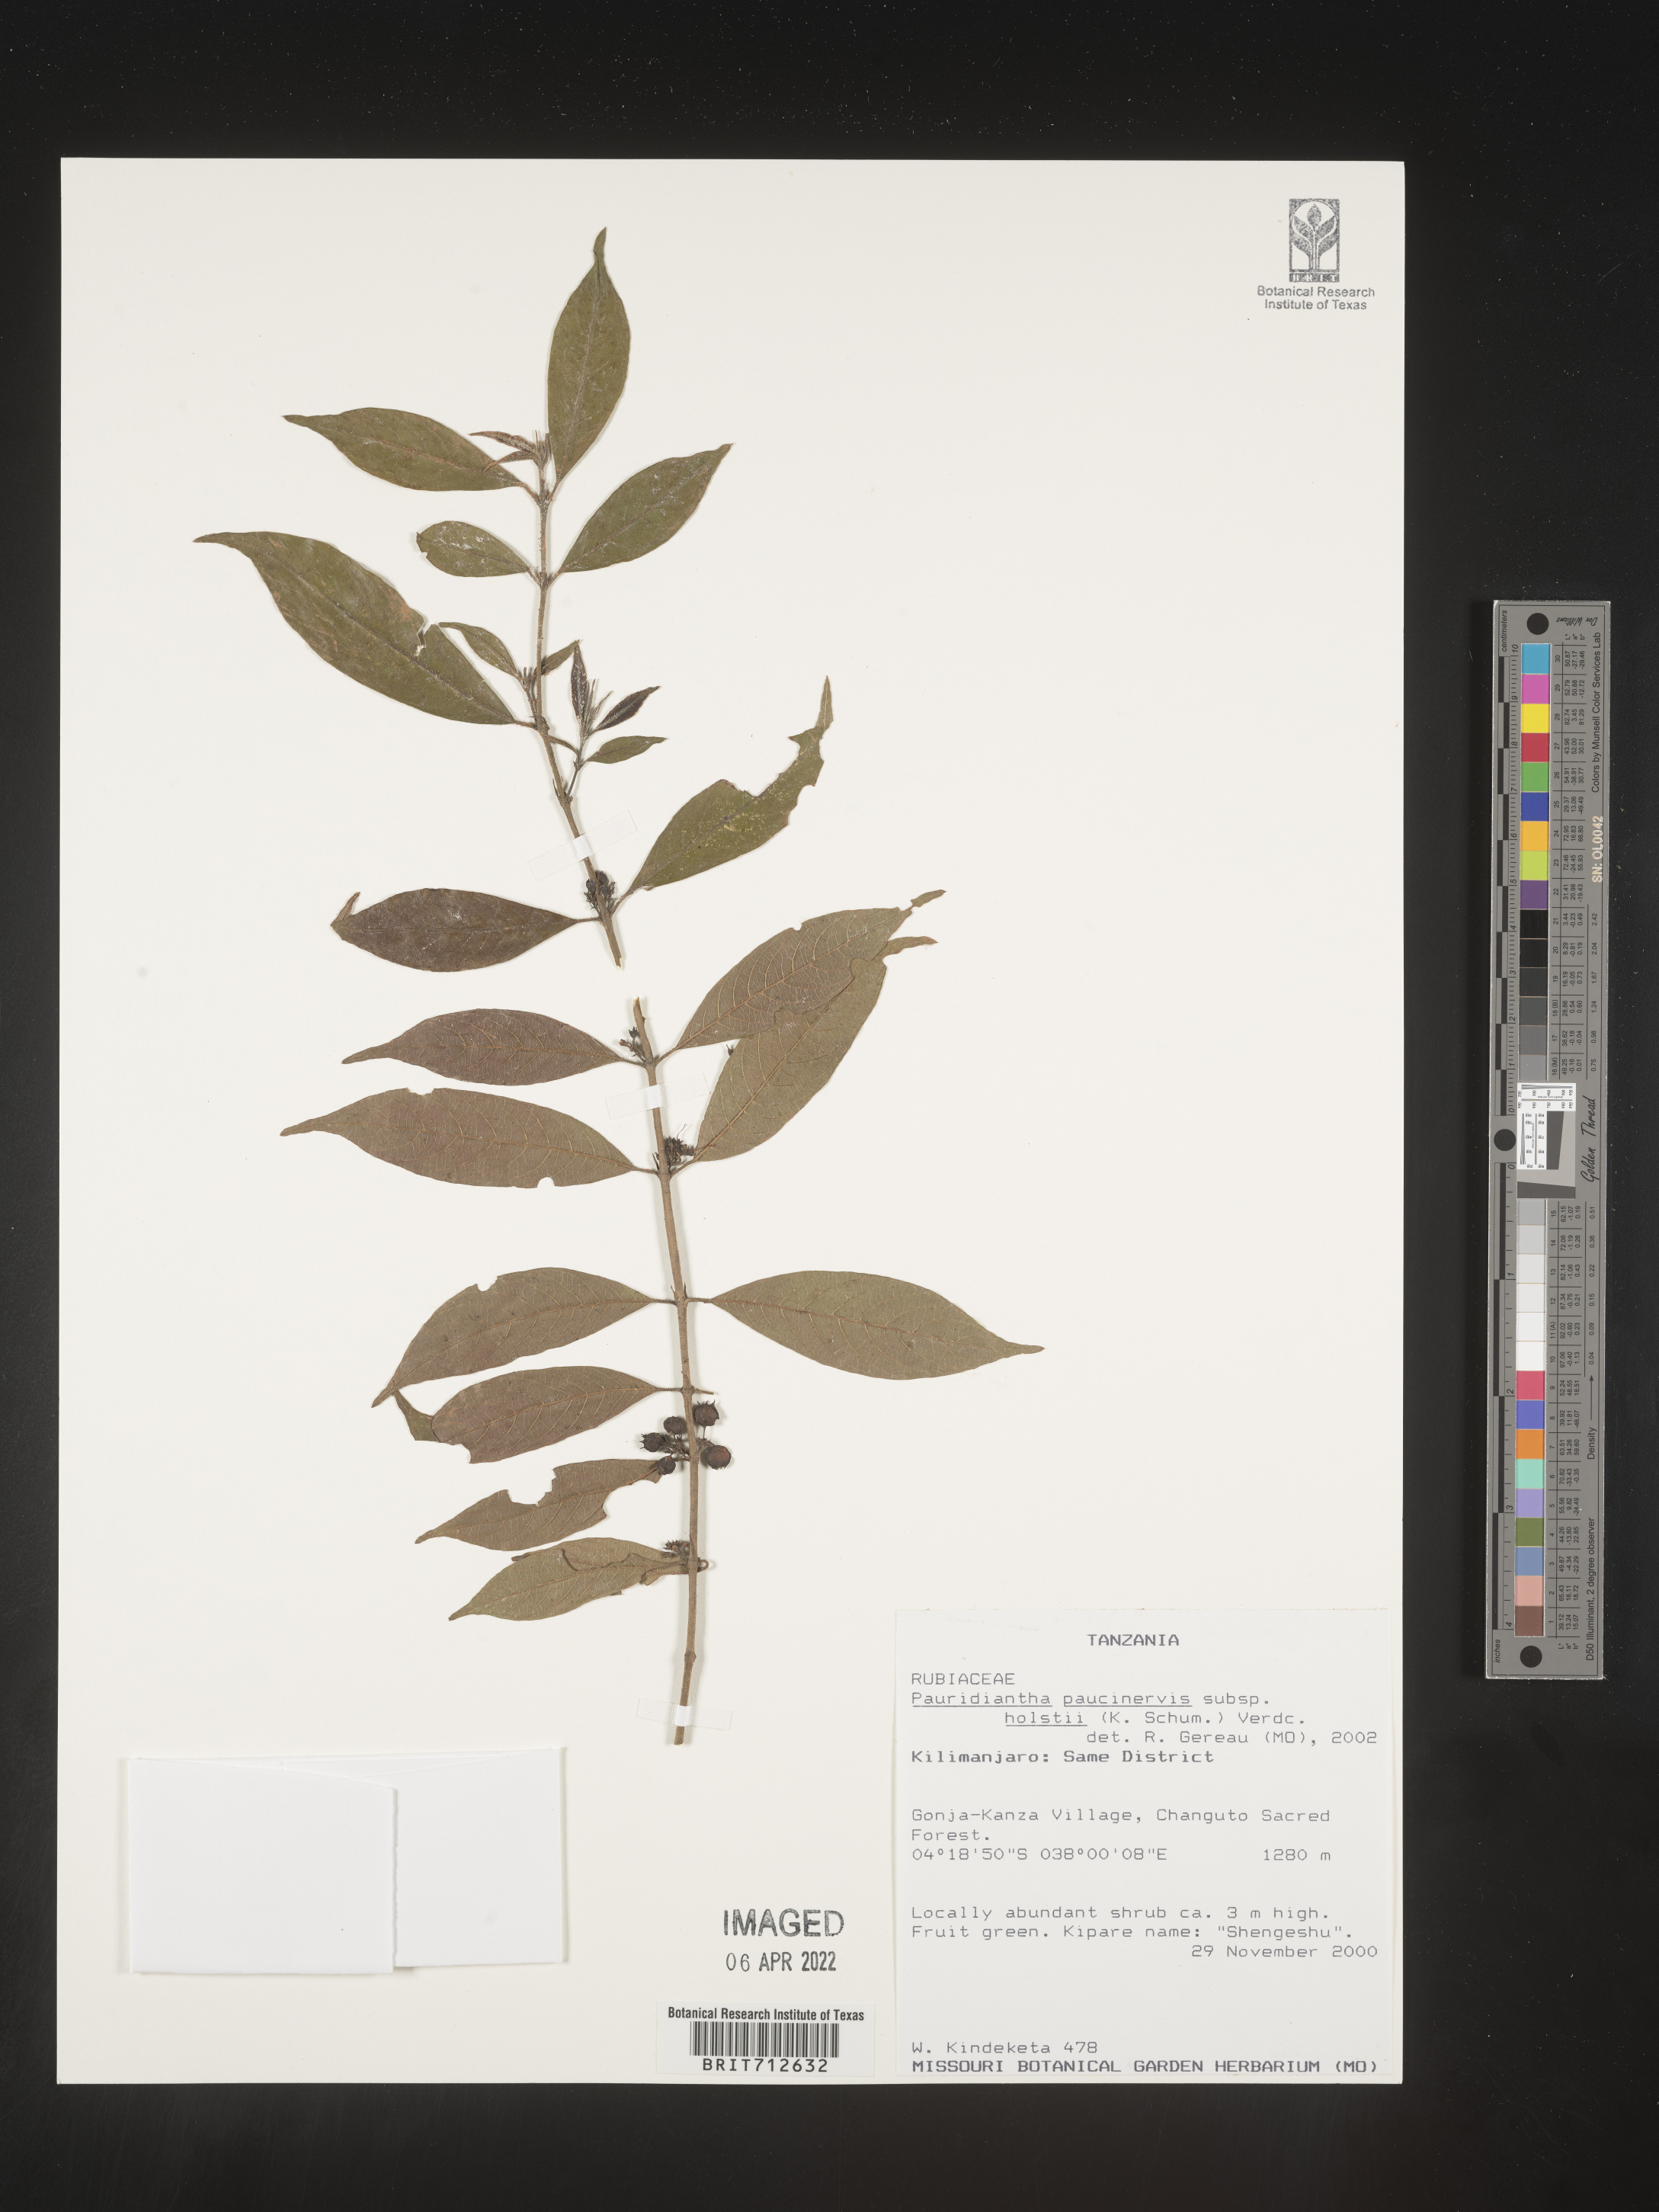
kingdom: Plantae
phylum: Tracheophyta
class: Magnoliopsida
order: Gentianales
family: Rubiaceae
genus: Pauridiantha
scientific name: Pauridiantha
